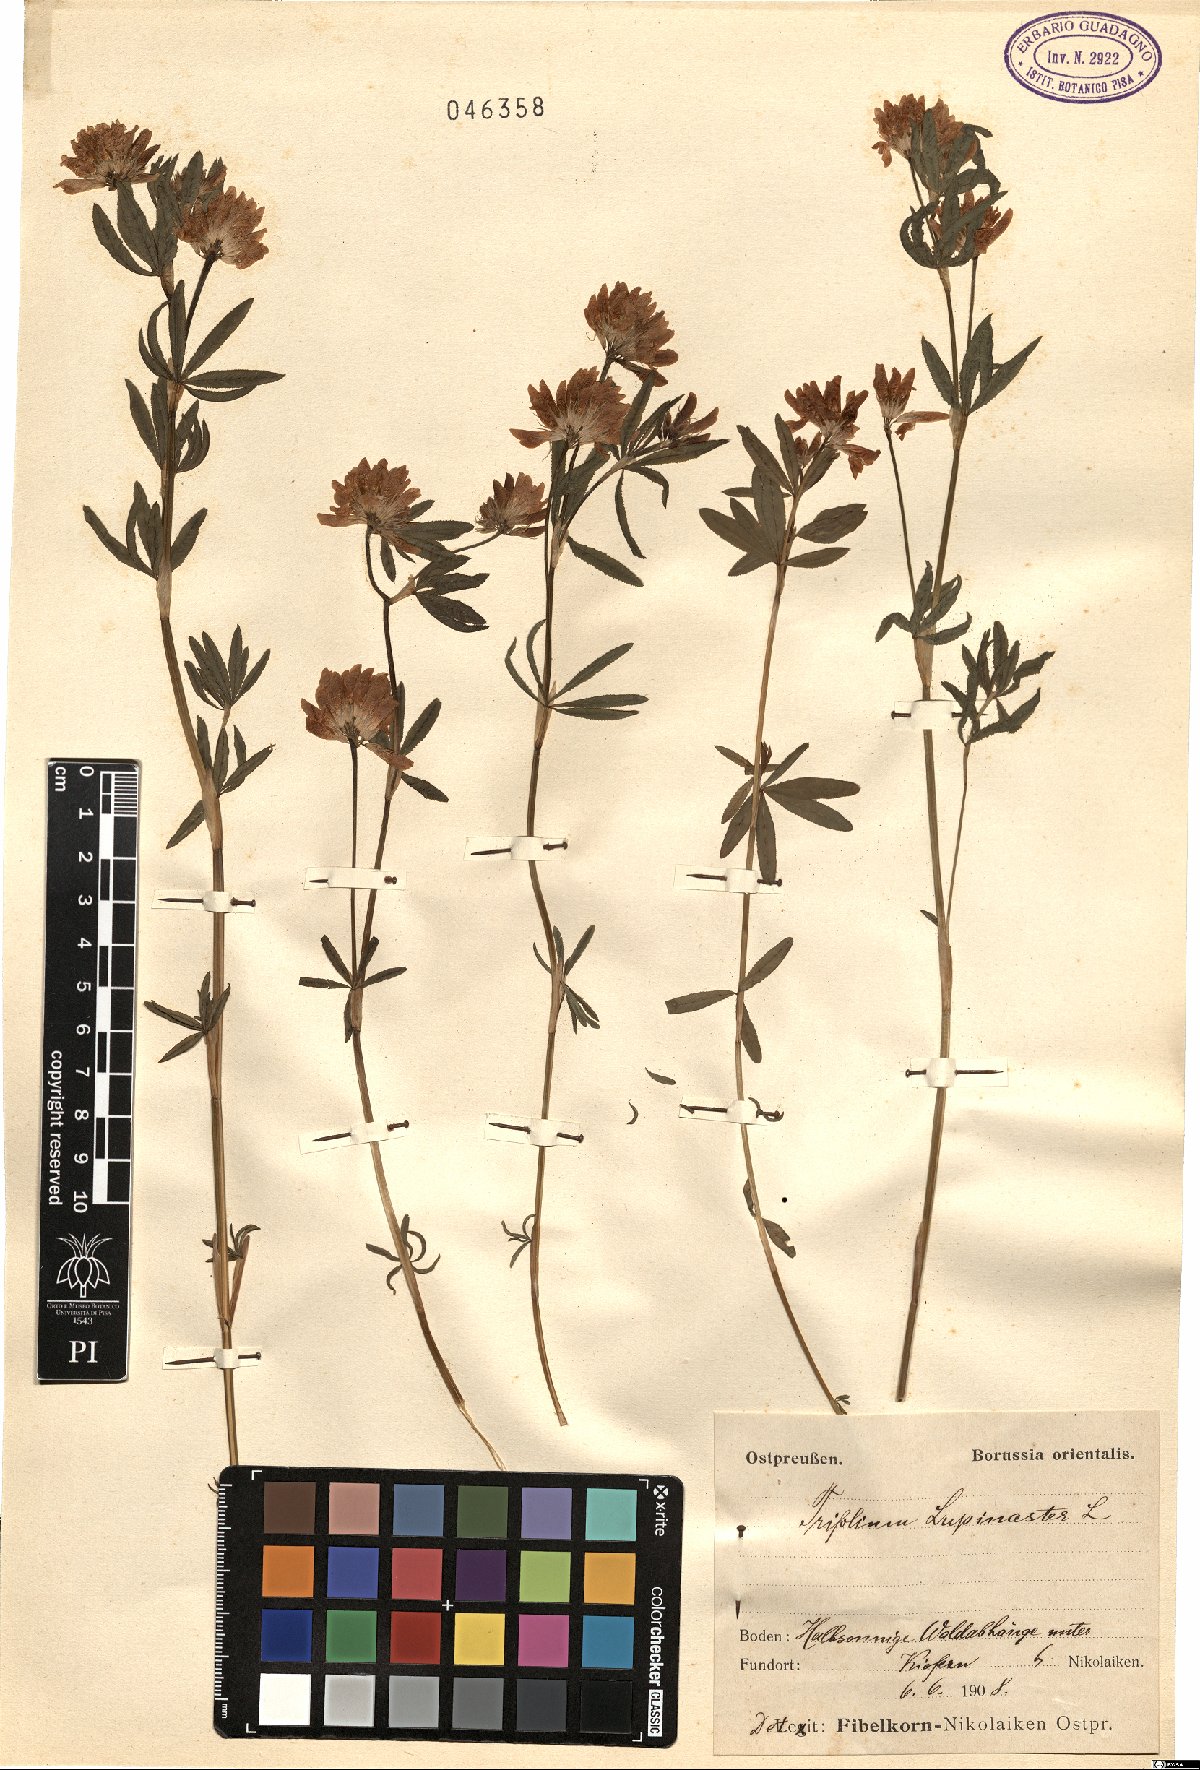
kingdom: Plantae
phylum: Tracheophyta
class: Magnoliopsida
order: Fabales
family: Fabaceae
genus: Trifolium
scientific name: Trifolium lupinaster
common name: Lupine clover
